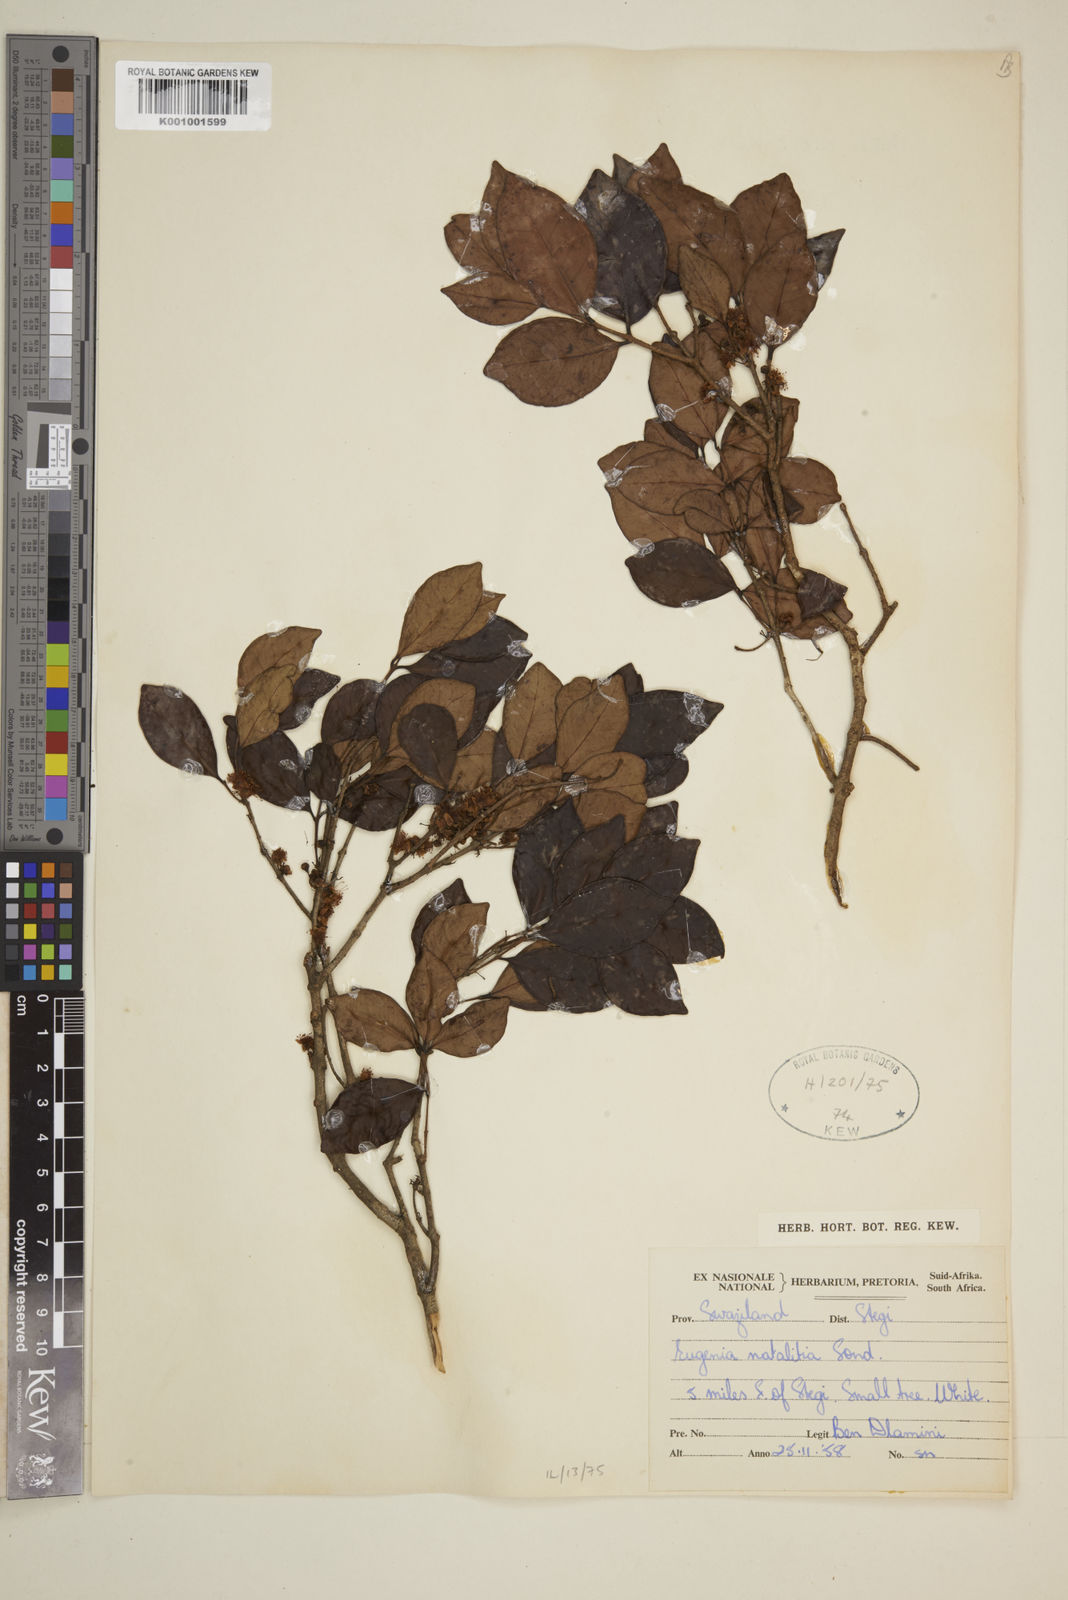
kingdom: Plantae
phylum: Tracheophyta
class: Magnoliopsida
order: Myrtales
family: Myrtaceae
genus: Eugenia
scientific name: Eugenia natalitia
